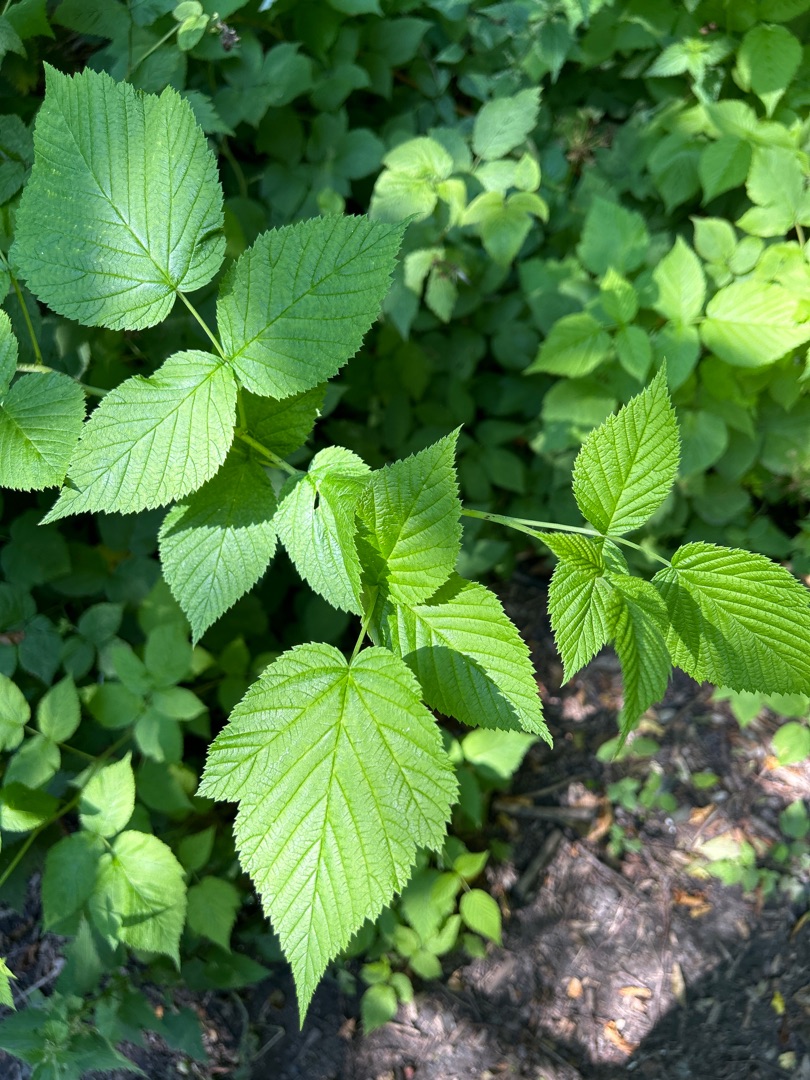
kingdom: Plantae
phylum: Tracheophyta
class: Magnoliopsida
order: Rosales
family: Rosaceae
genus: Rubus
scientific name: Rubus idaeus
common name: Hindbær
